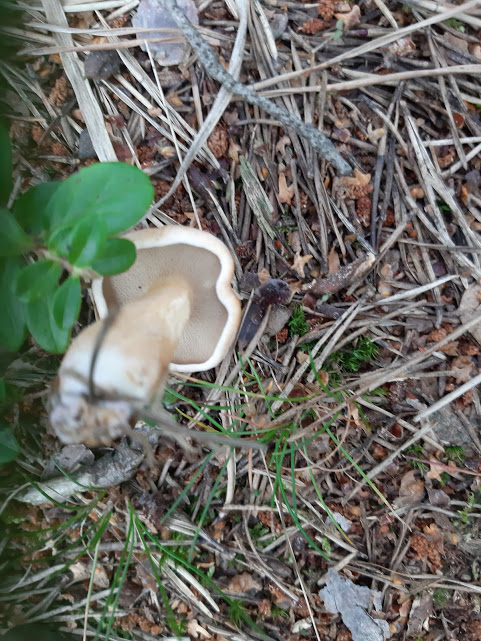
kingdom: Fungi
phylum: Basidiomycota
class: Agaricomycetes
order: Boletales
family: Suillaceae
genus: Suillus
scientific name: Suillus variegatus
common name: broget slimrørhat
